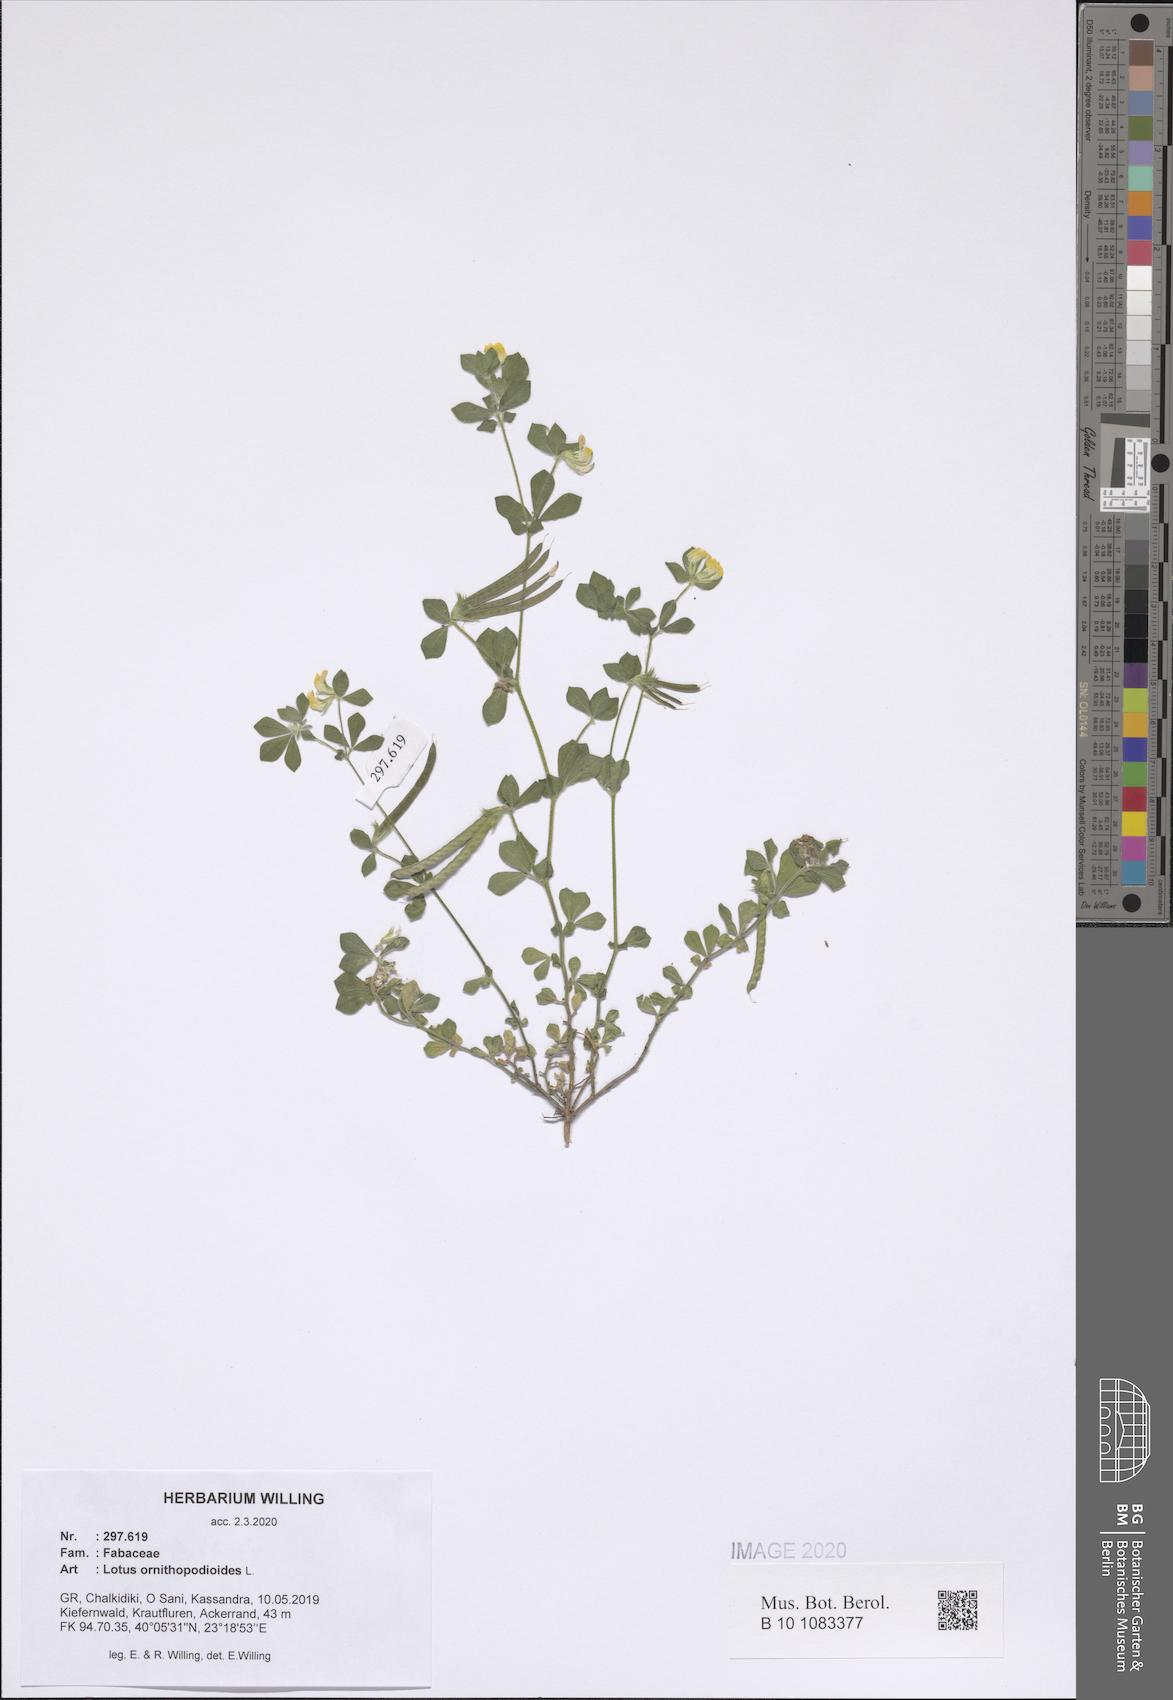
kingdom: Plantae
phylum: Tracheophyta
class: Magnoliopsida
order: Fabales
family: Fabaceae
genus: Lotus
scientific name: Lotus ornithopodioides
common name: Southern bird's-foot trefoil
